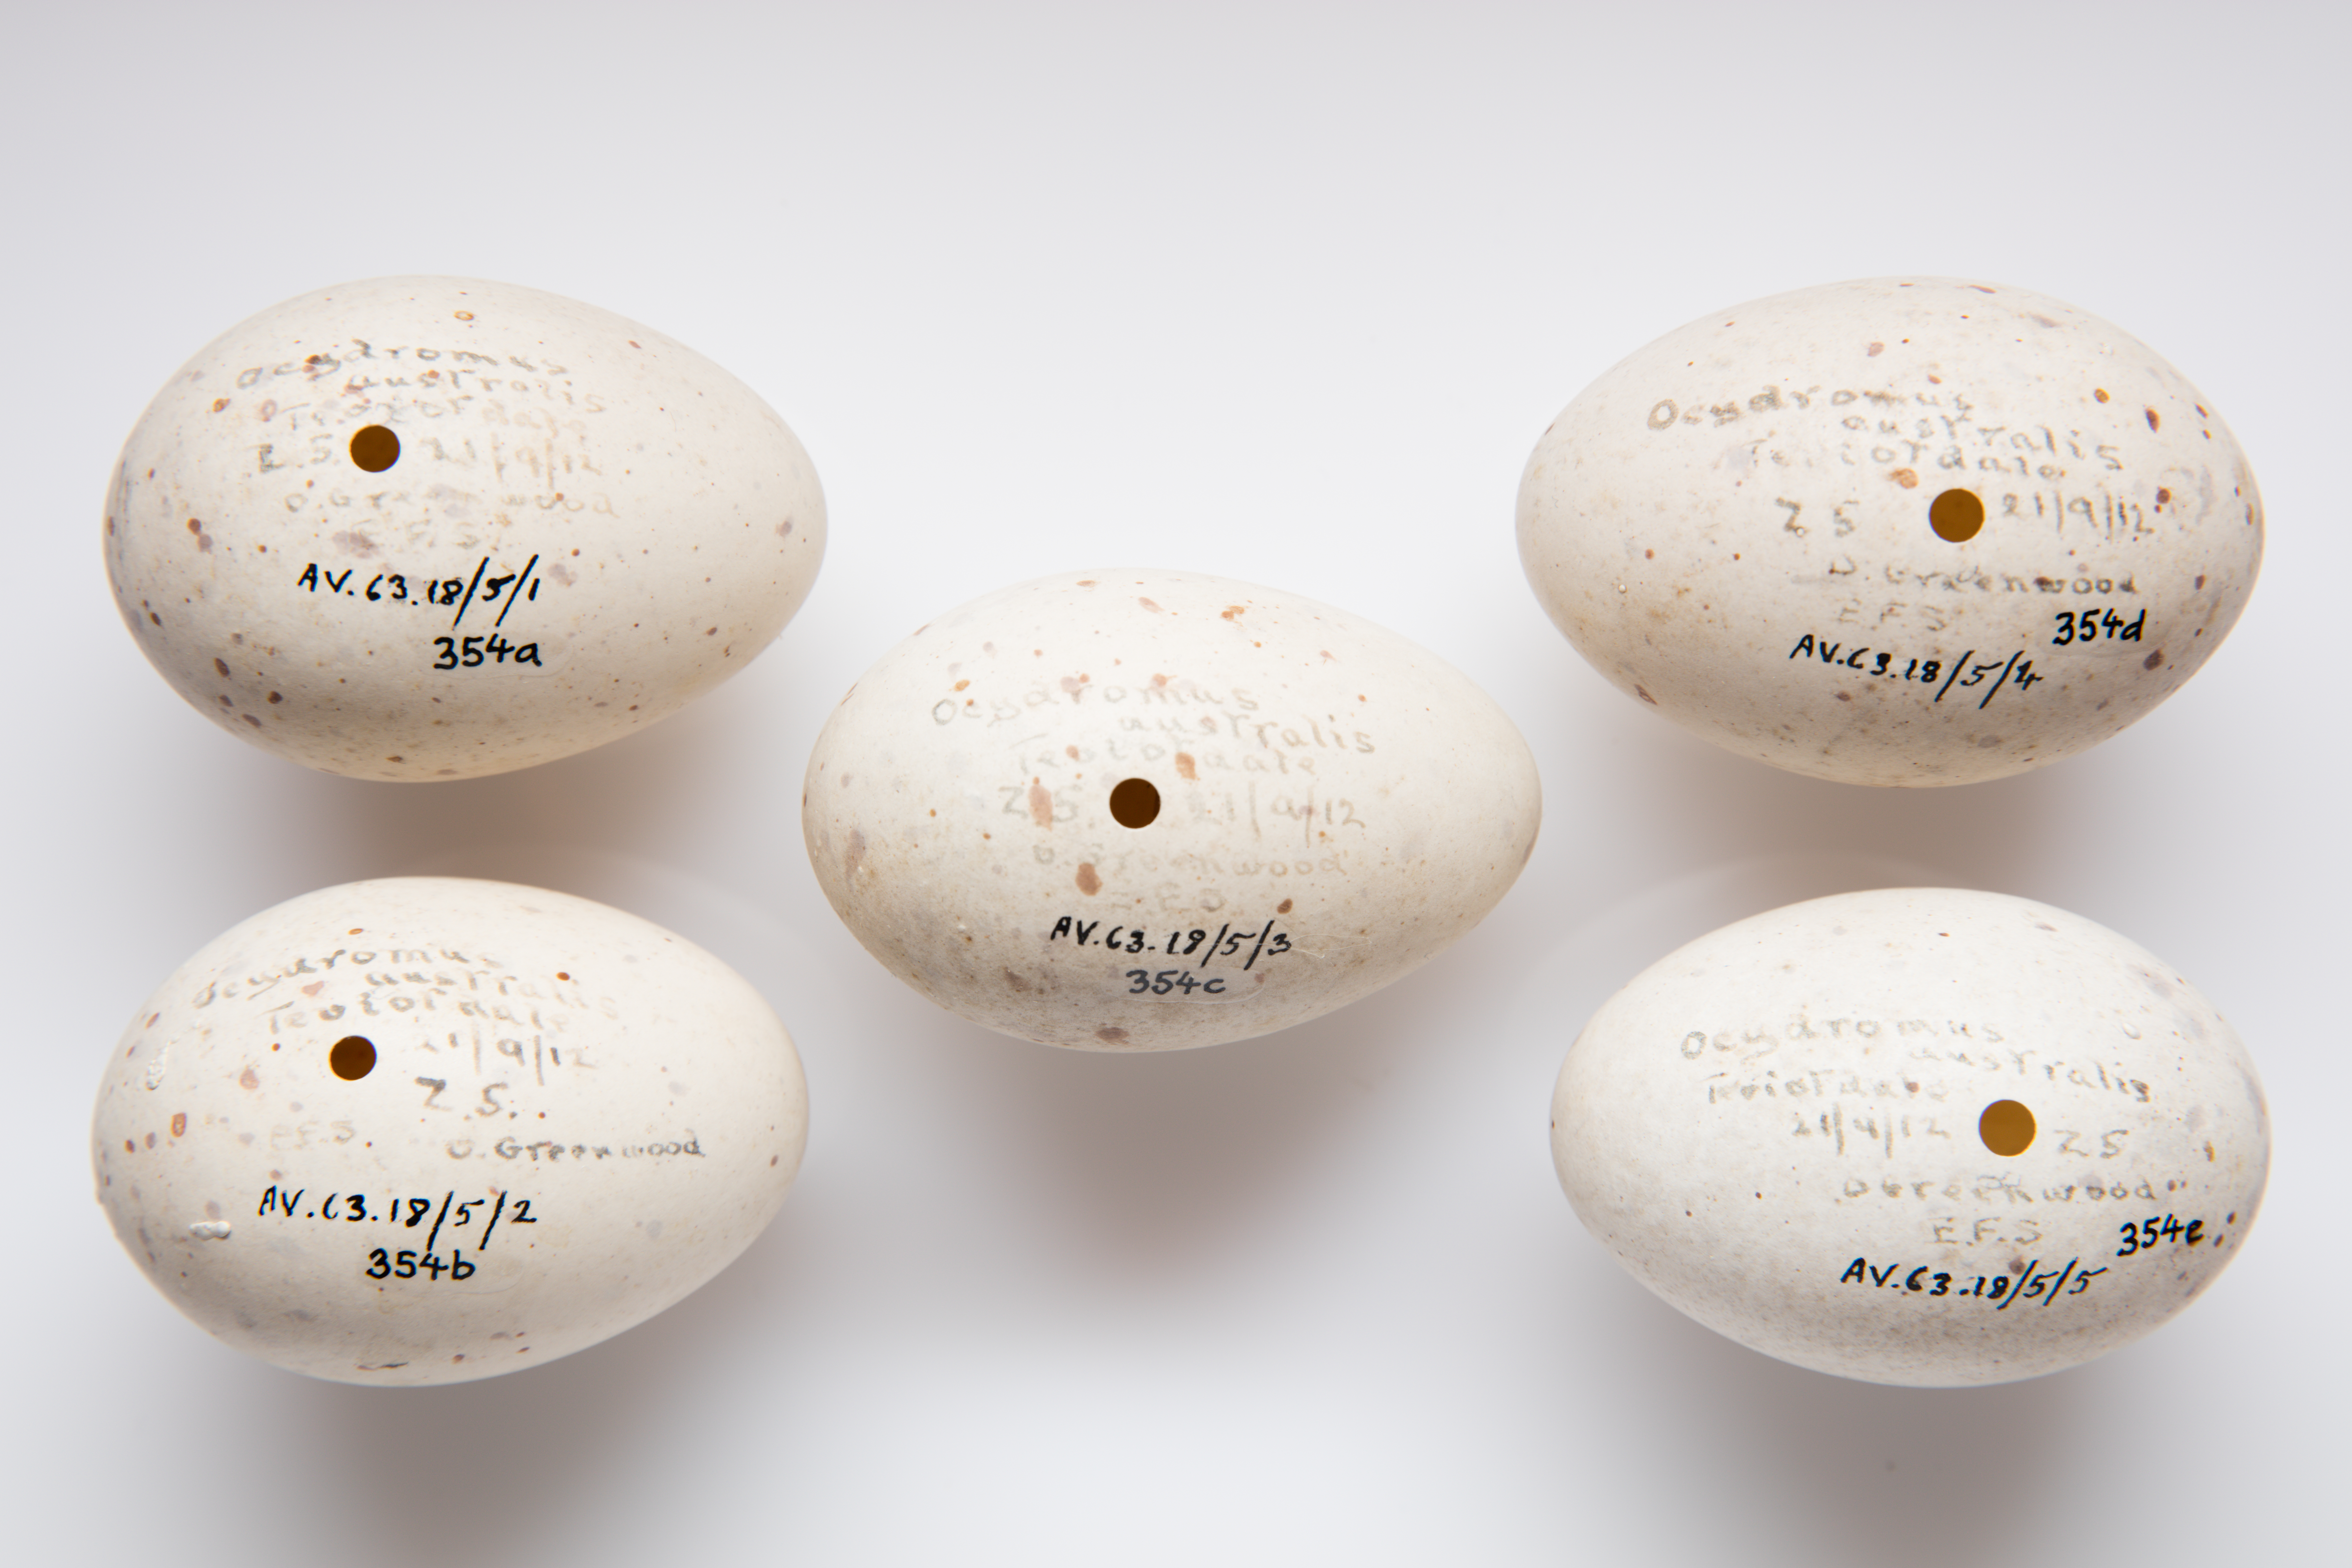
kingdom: Animalia
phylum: Chordata
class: Aves
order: Gruiformes
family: Rallidae
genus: Gallirallus
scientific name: Gallirallus australis
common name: Weka
